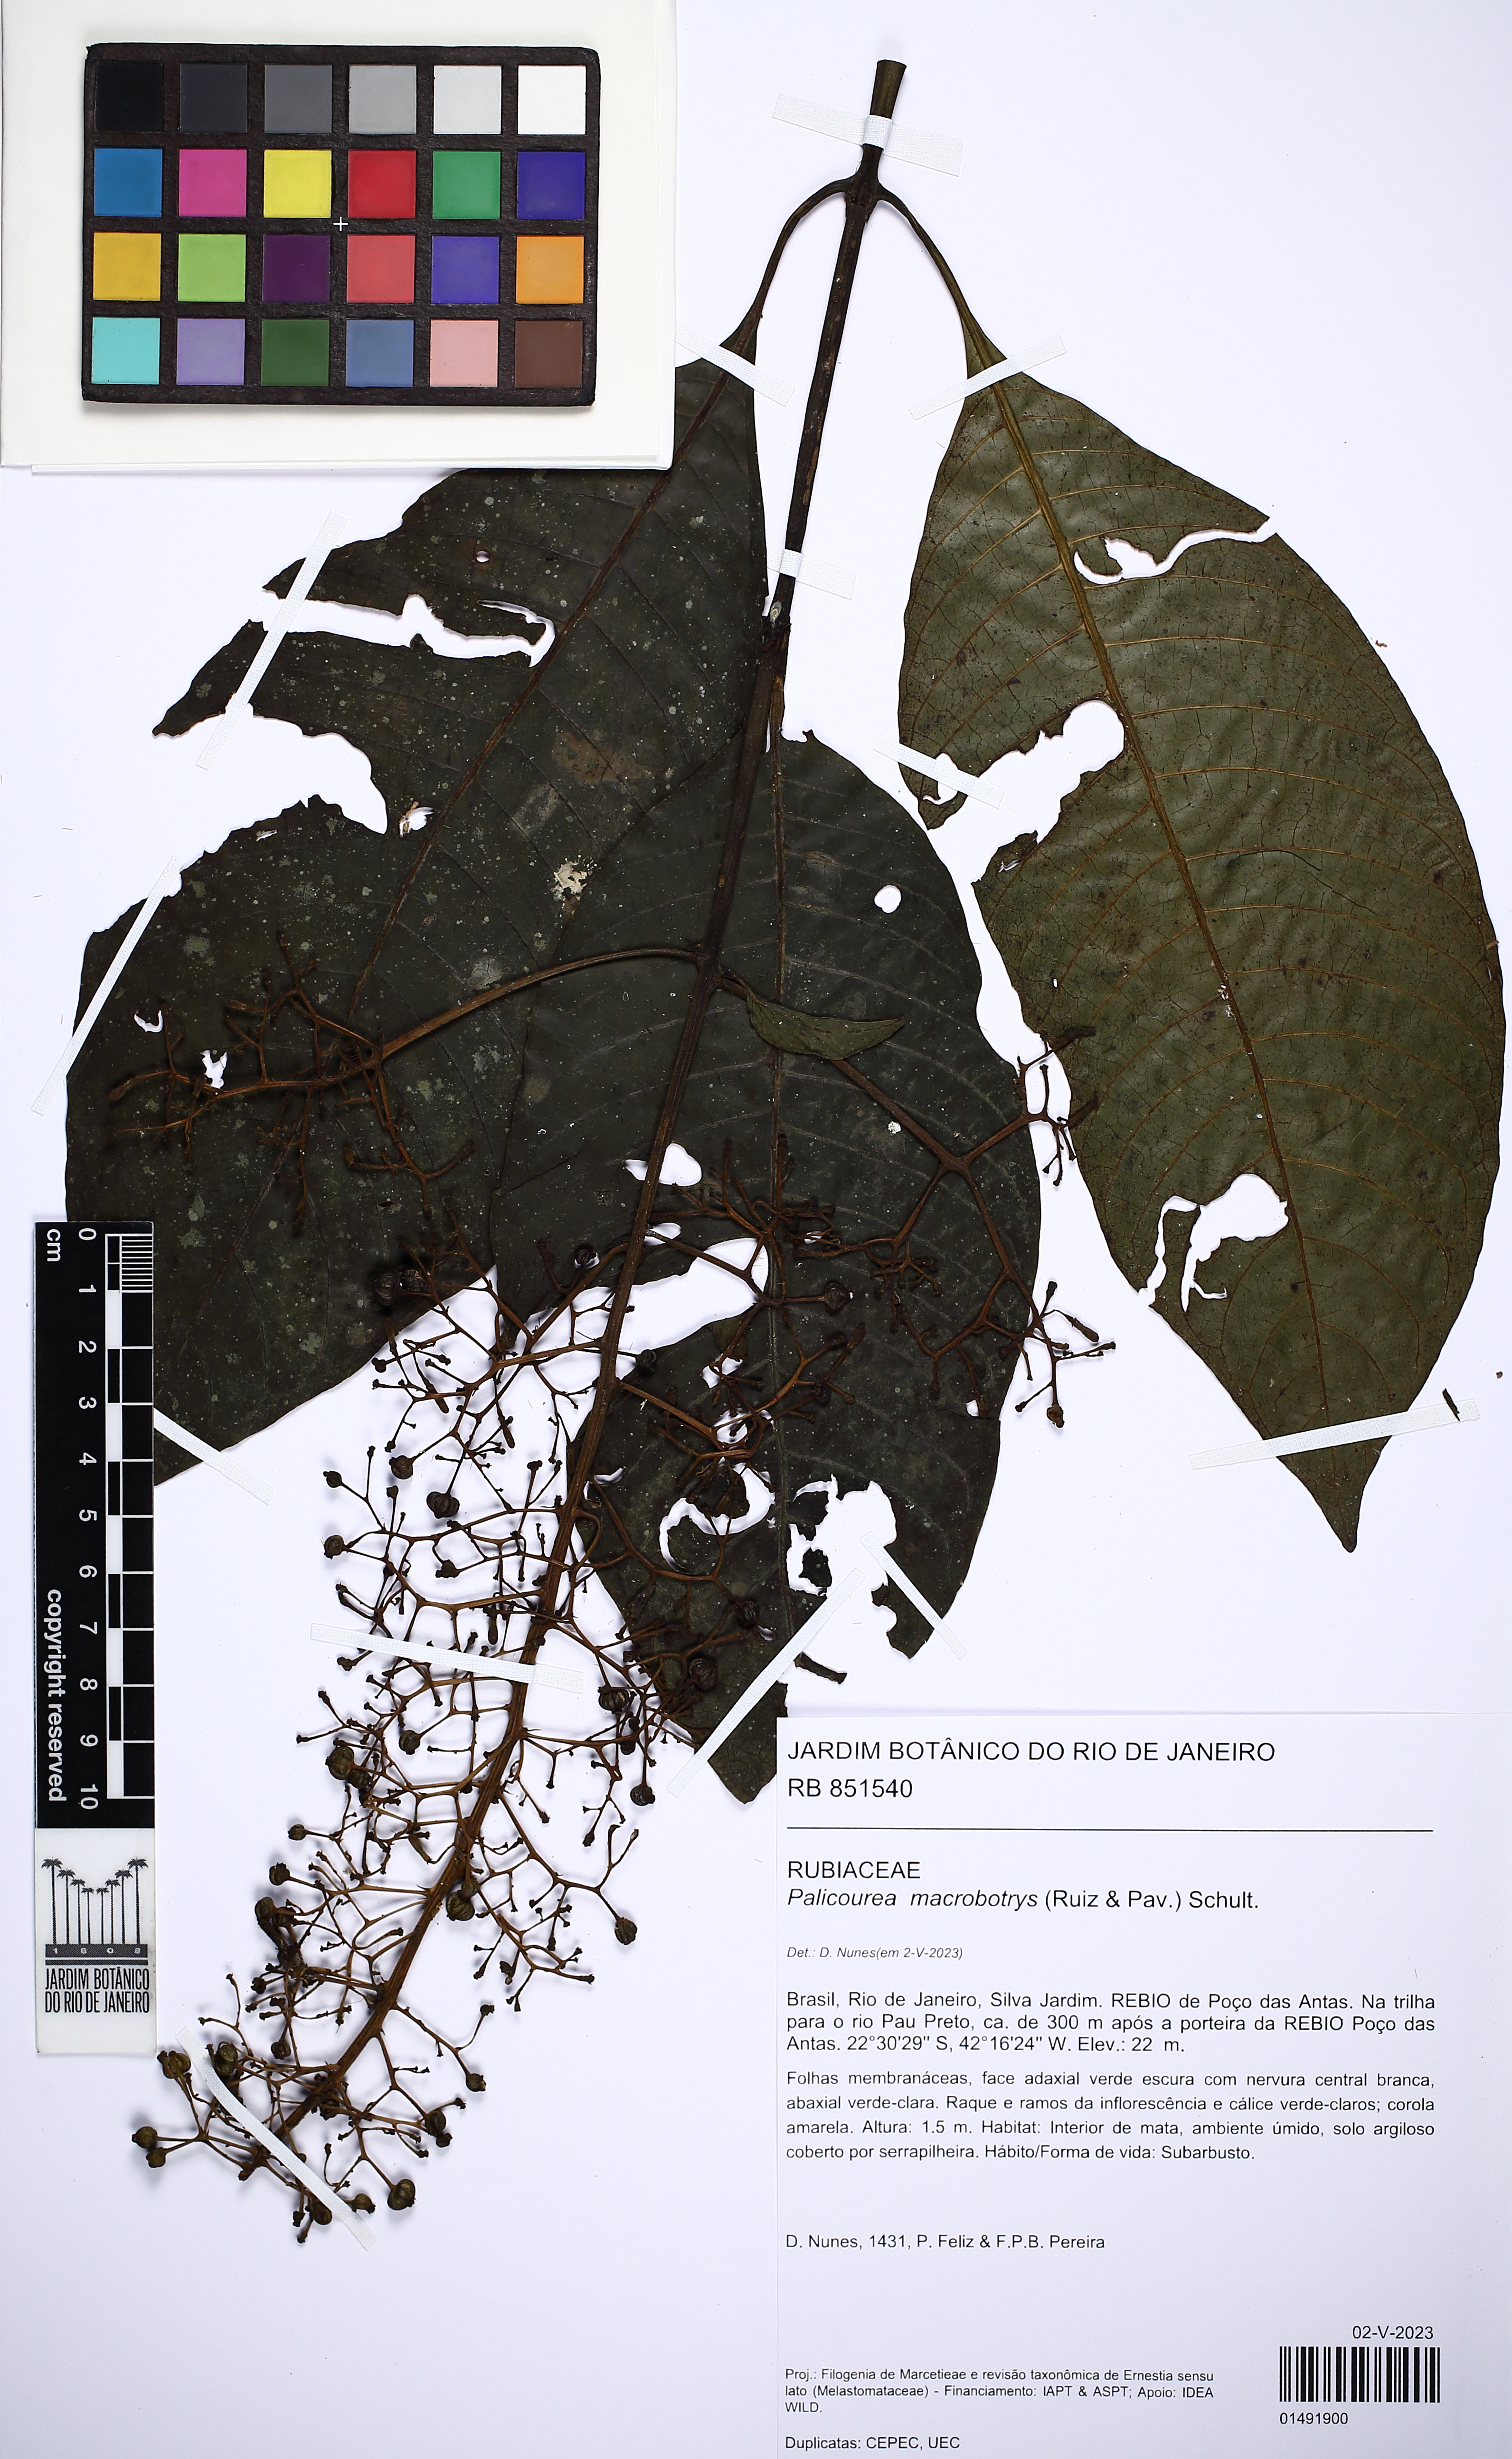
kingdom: Plantae
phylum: Tracheophyta
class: Magnoliopsida
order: Gentianales
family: Rubiaceae
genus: Palicourea
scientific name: Palicourea macrobotrys
